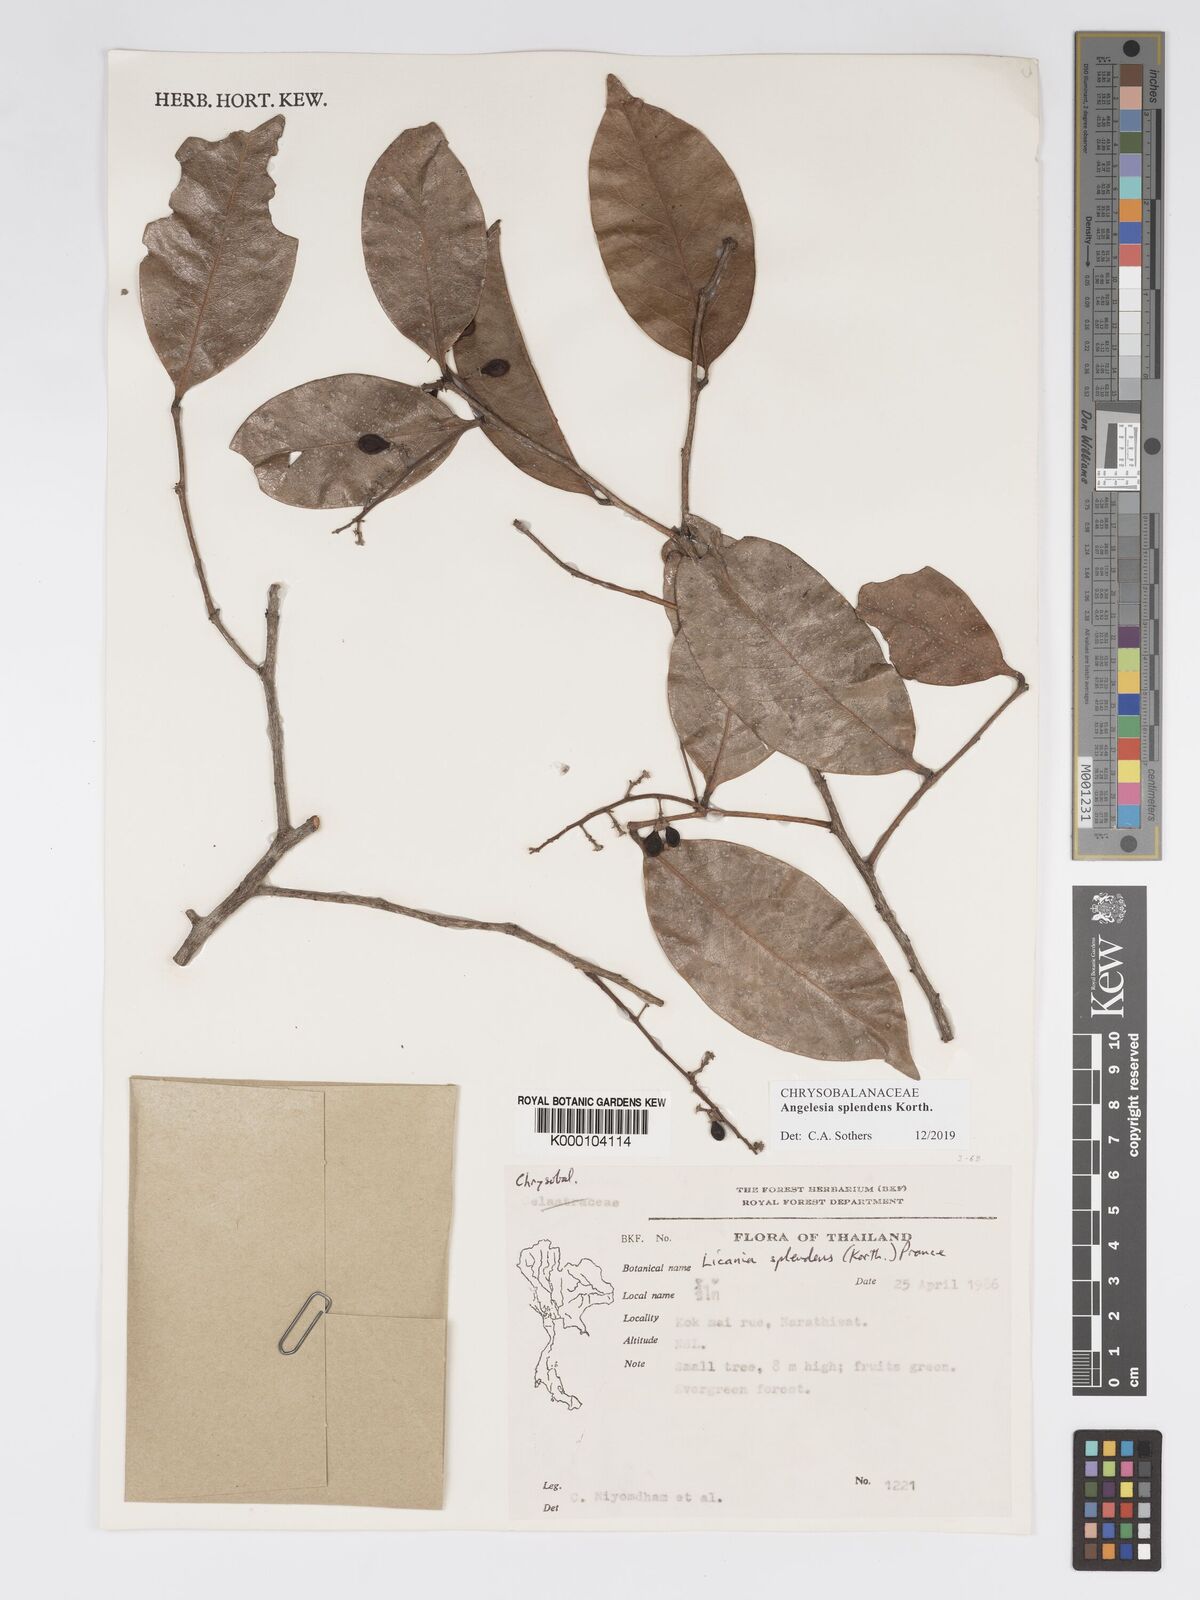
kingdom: Plantae
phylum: Tracheophyta
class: Magnoliopsida
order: Malpighiales
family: Chrysobalanaceae
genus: Angelesia
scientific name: Angelesia splendens
